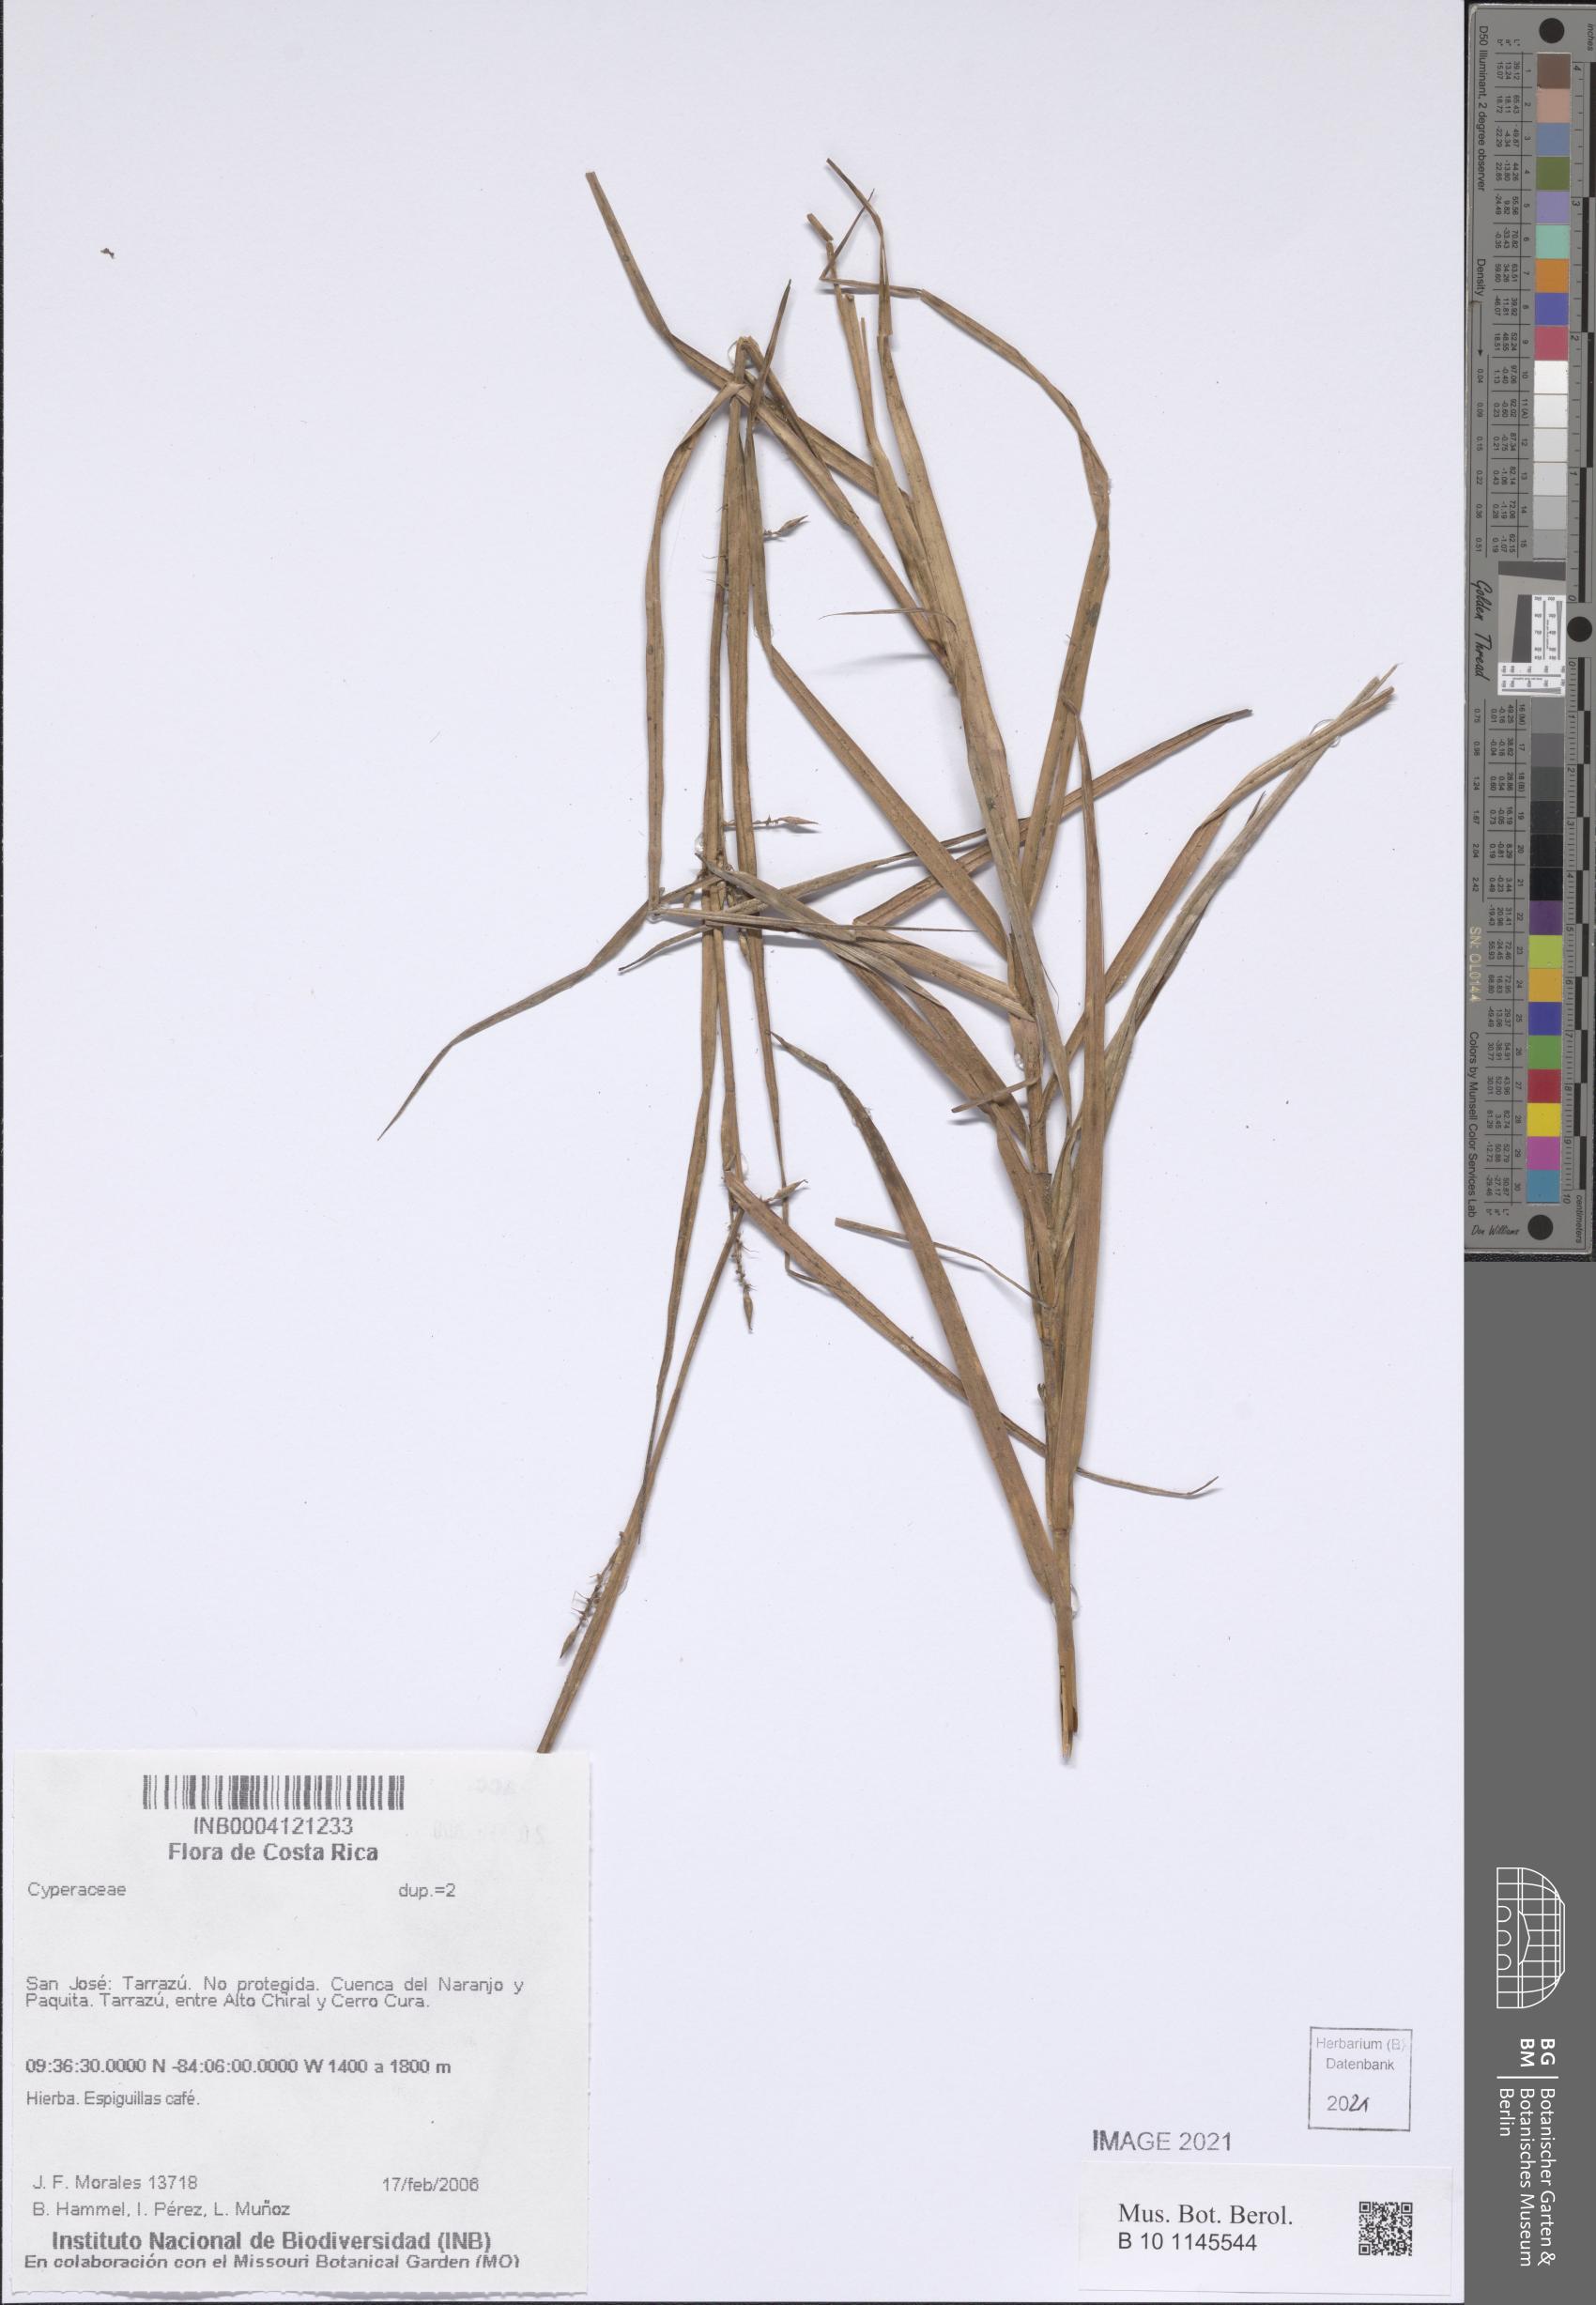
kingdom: Plantae
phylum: Tracheophyta
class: Liliopsida
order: Poales
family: Cyperaceae
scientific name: Cyperaceae
